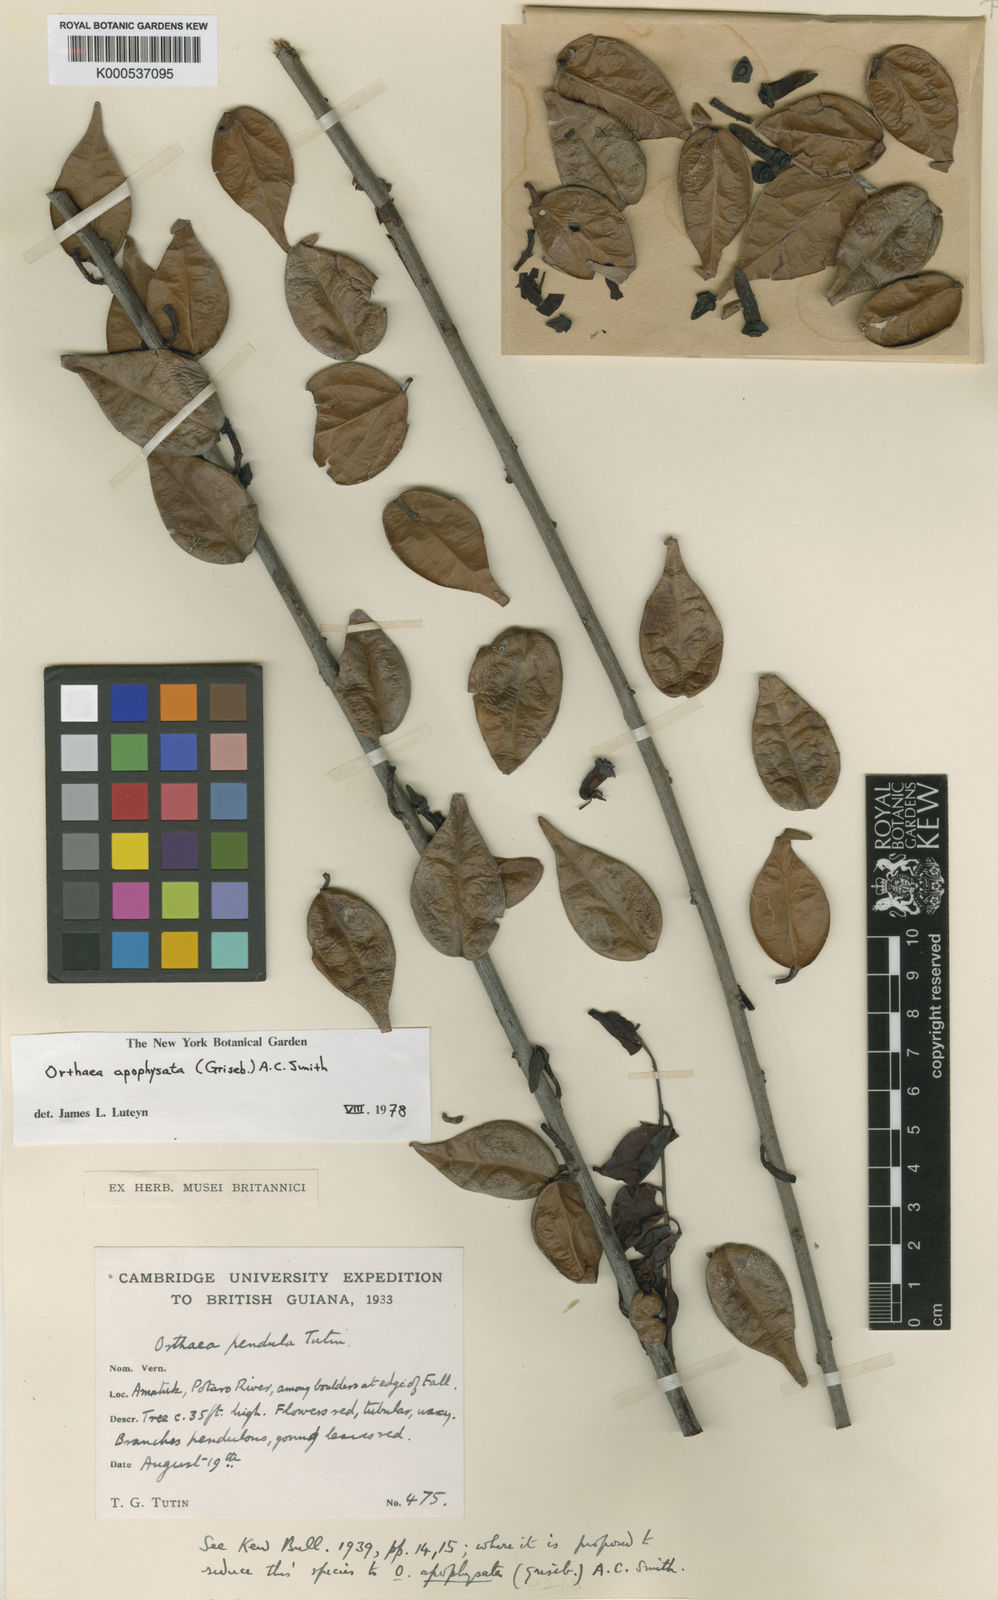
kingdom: Plantae
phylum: Tracheophyta
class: Magnoliopsida
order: Ericales
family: Ericaceae
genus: Orthaea
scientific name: Orthaea apophysata
